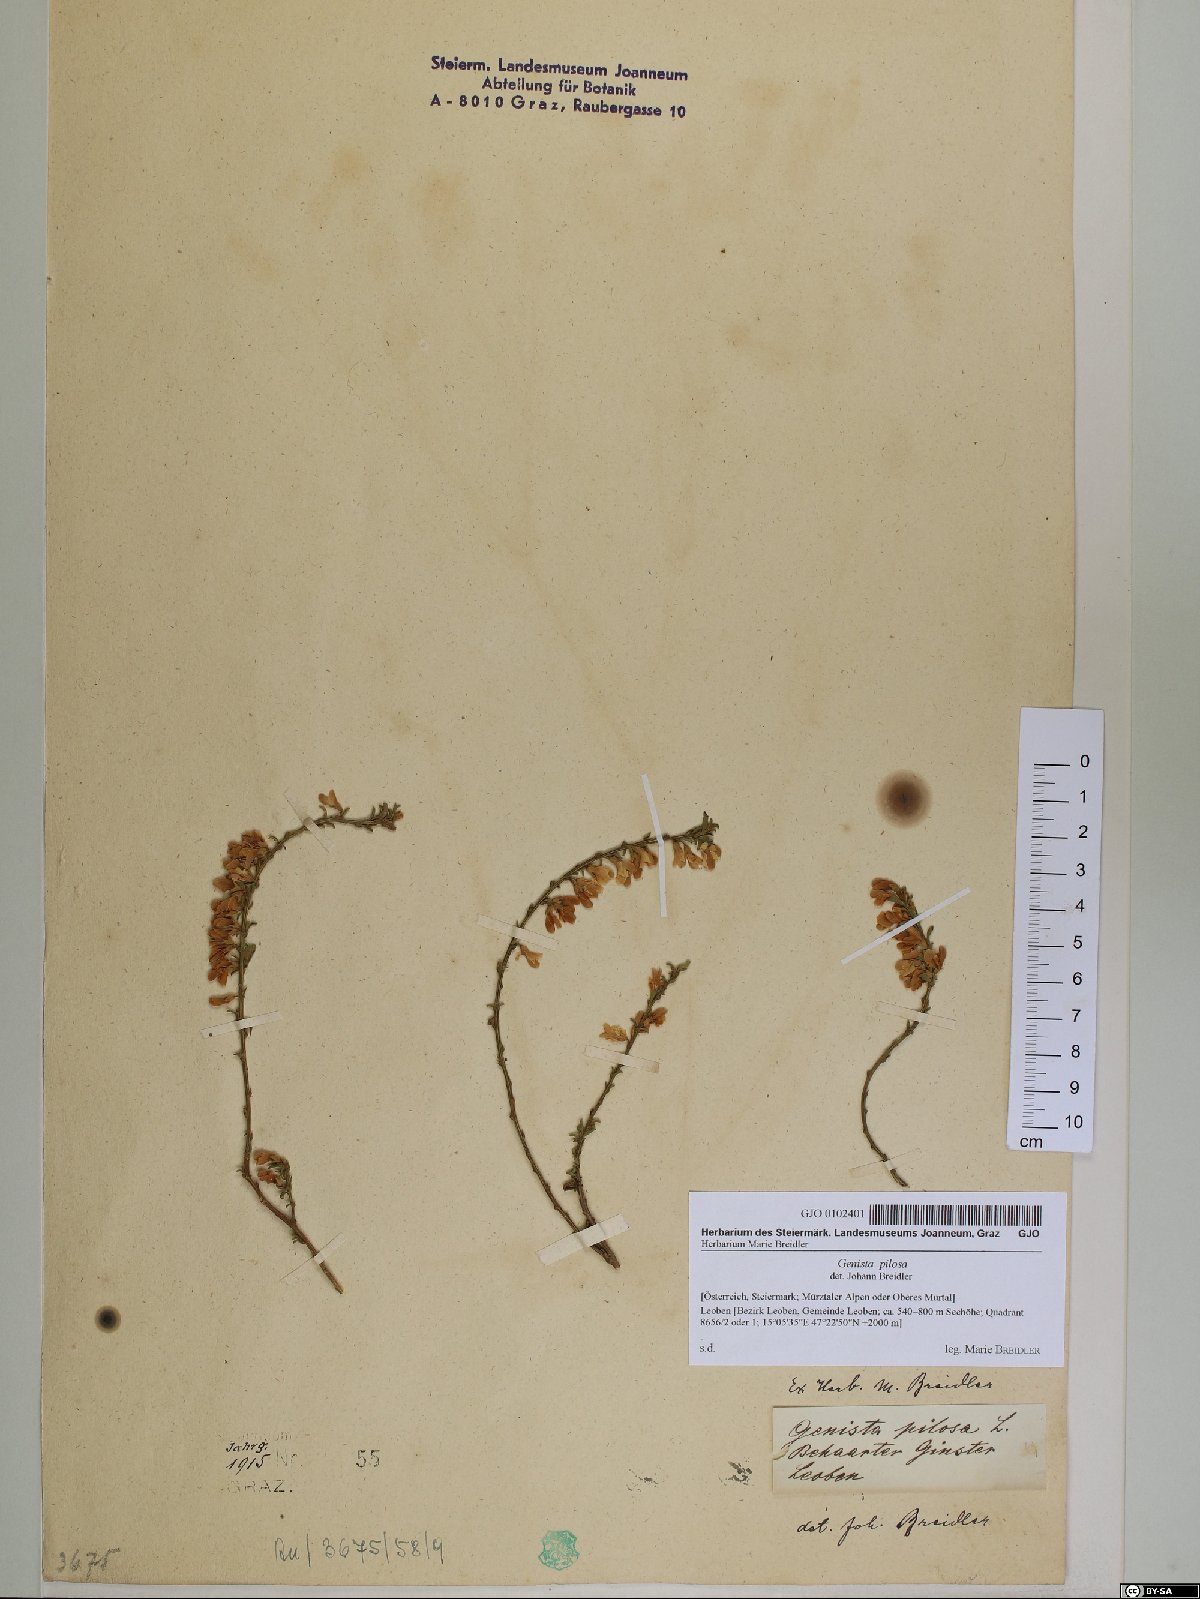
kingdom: Plantae
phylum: Tracheophyta
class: Magnoliopsida
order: Fabales
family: Fabaceae
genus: Genista
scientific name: Genista pilosa
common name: Hairy greenweed
